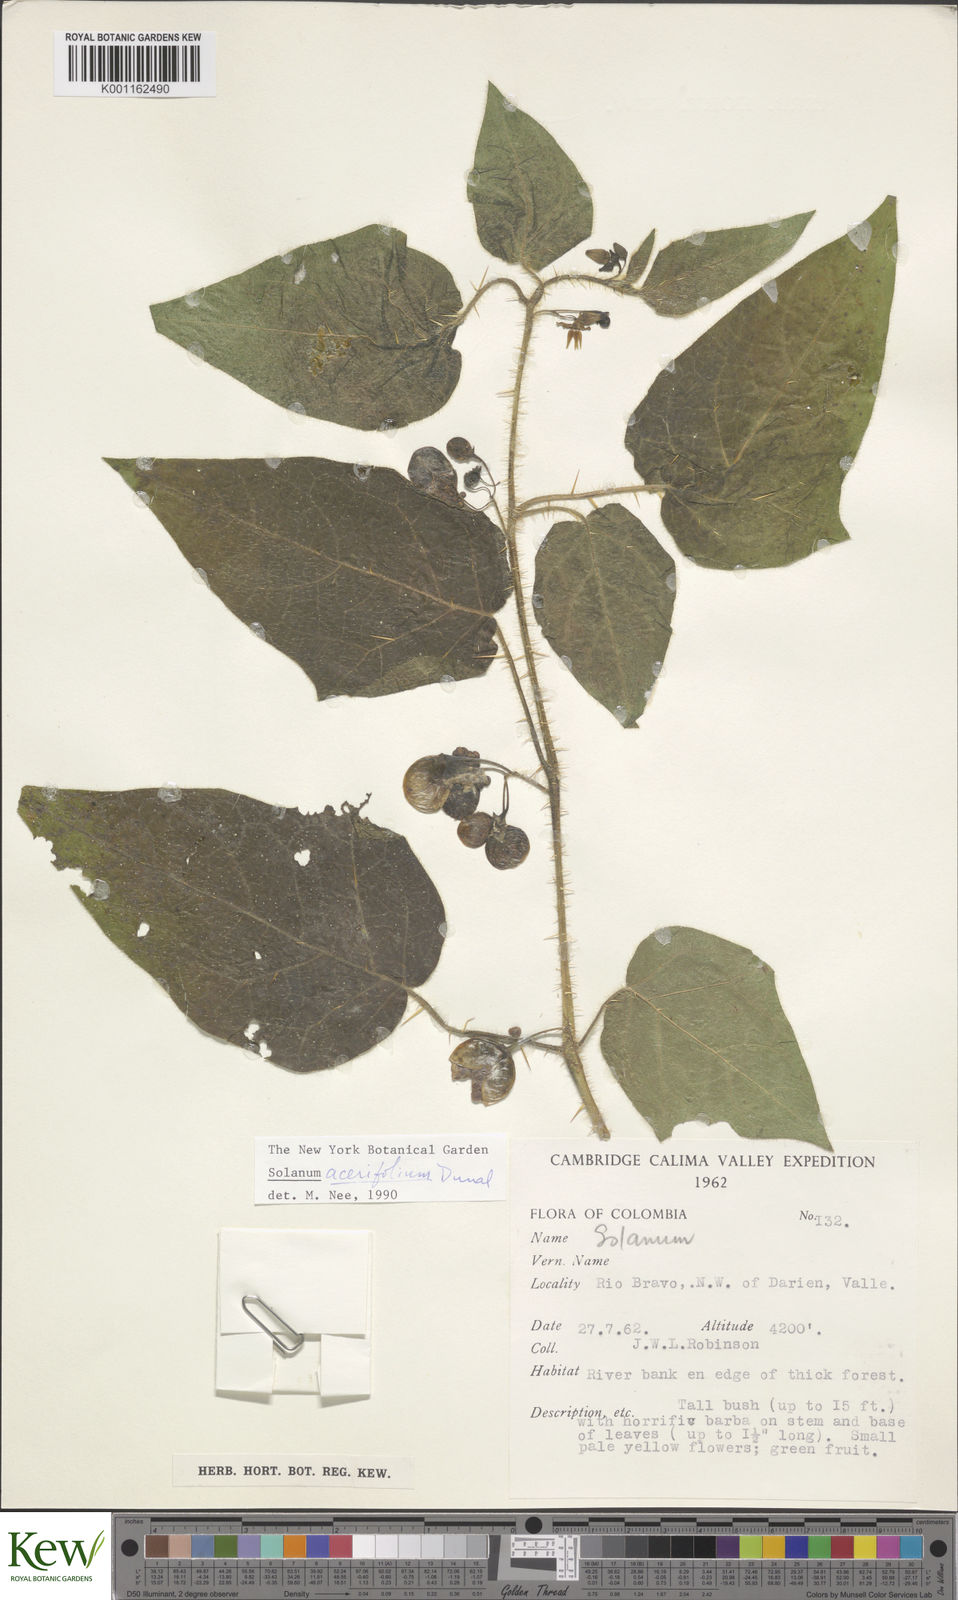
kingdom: Plantae
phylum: Tracheophyta
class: Magnoliopsida
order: Solanales
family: Solanaceae
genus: Solanum
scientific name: Solanum acerifolium
